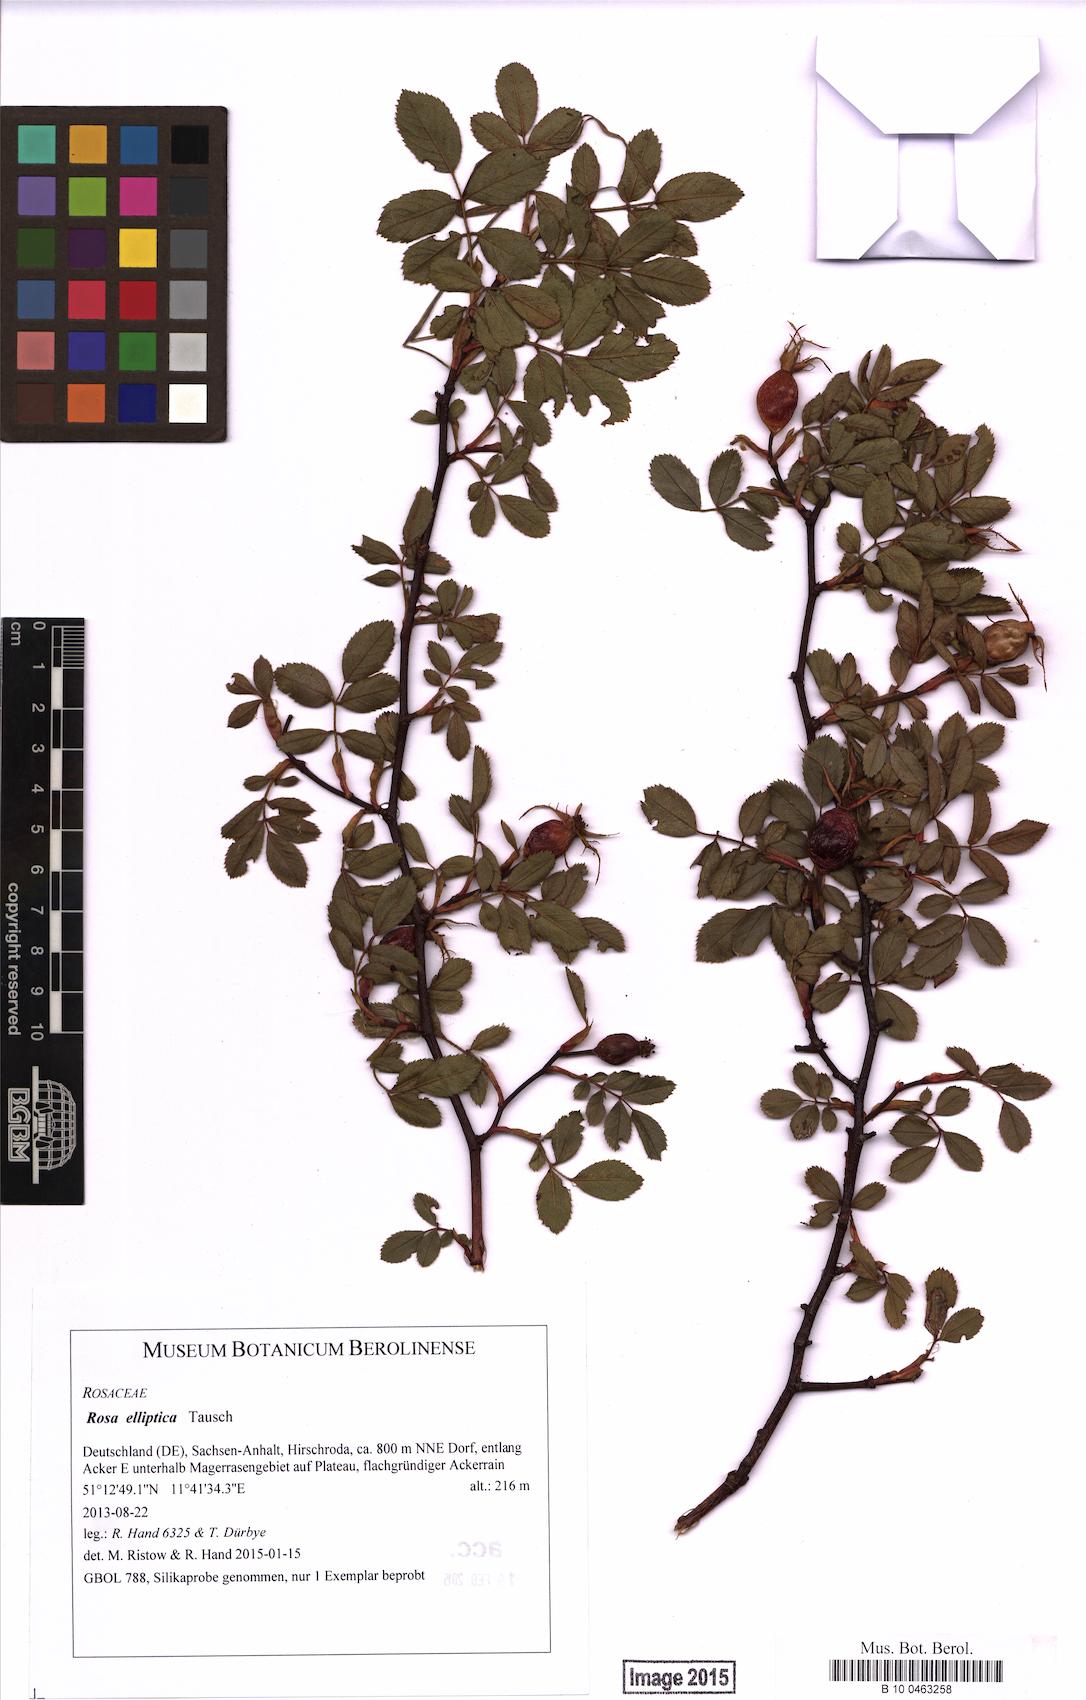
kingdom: Plantae
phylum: Tracheophyta
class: Magnoliopsida
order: Rosales
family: Rosaceae
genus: Rosa
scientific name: Rosa inodora
